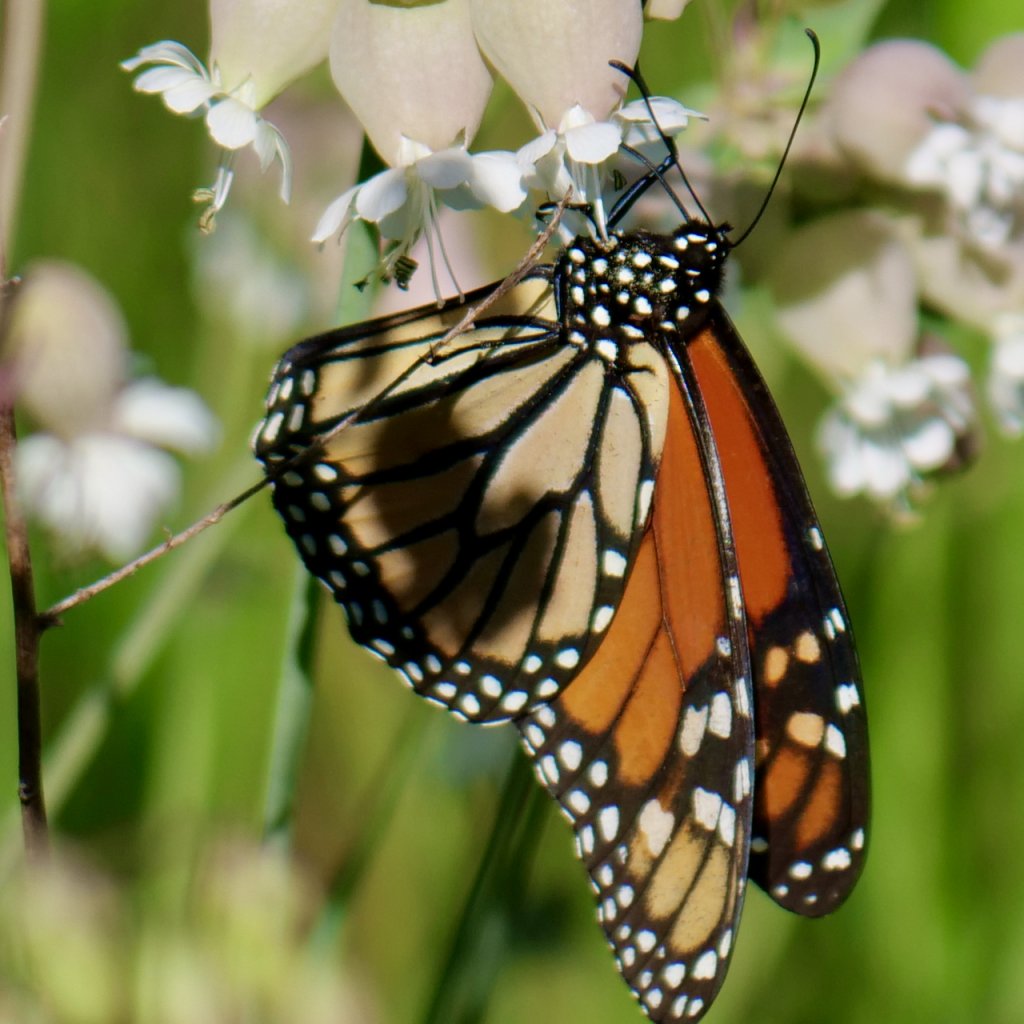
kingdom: Animalia
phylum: Arthropoda
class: Insecta
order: Lepidoptera
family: Nymphalidae
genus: Danaus
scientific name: Danaus plexippus
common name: Monarch
